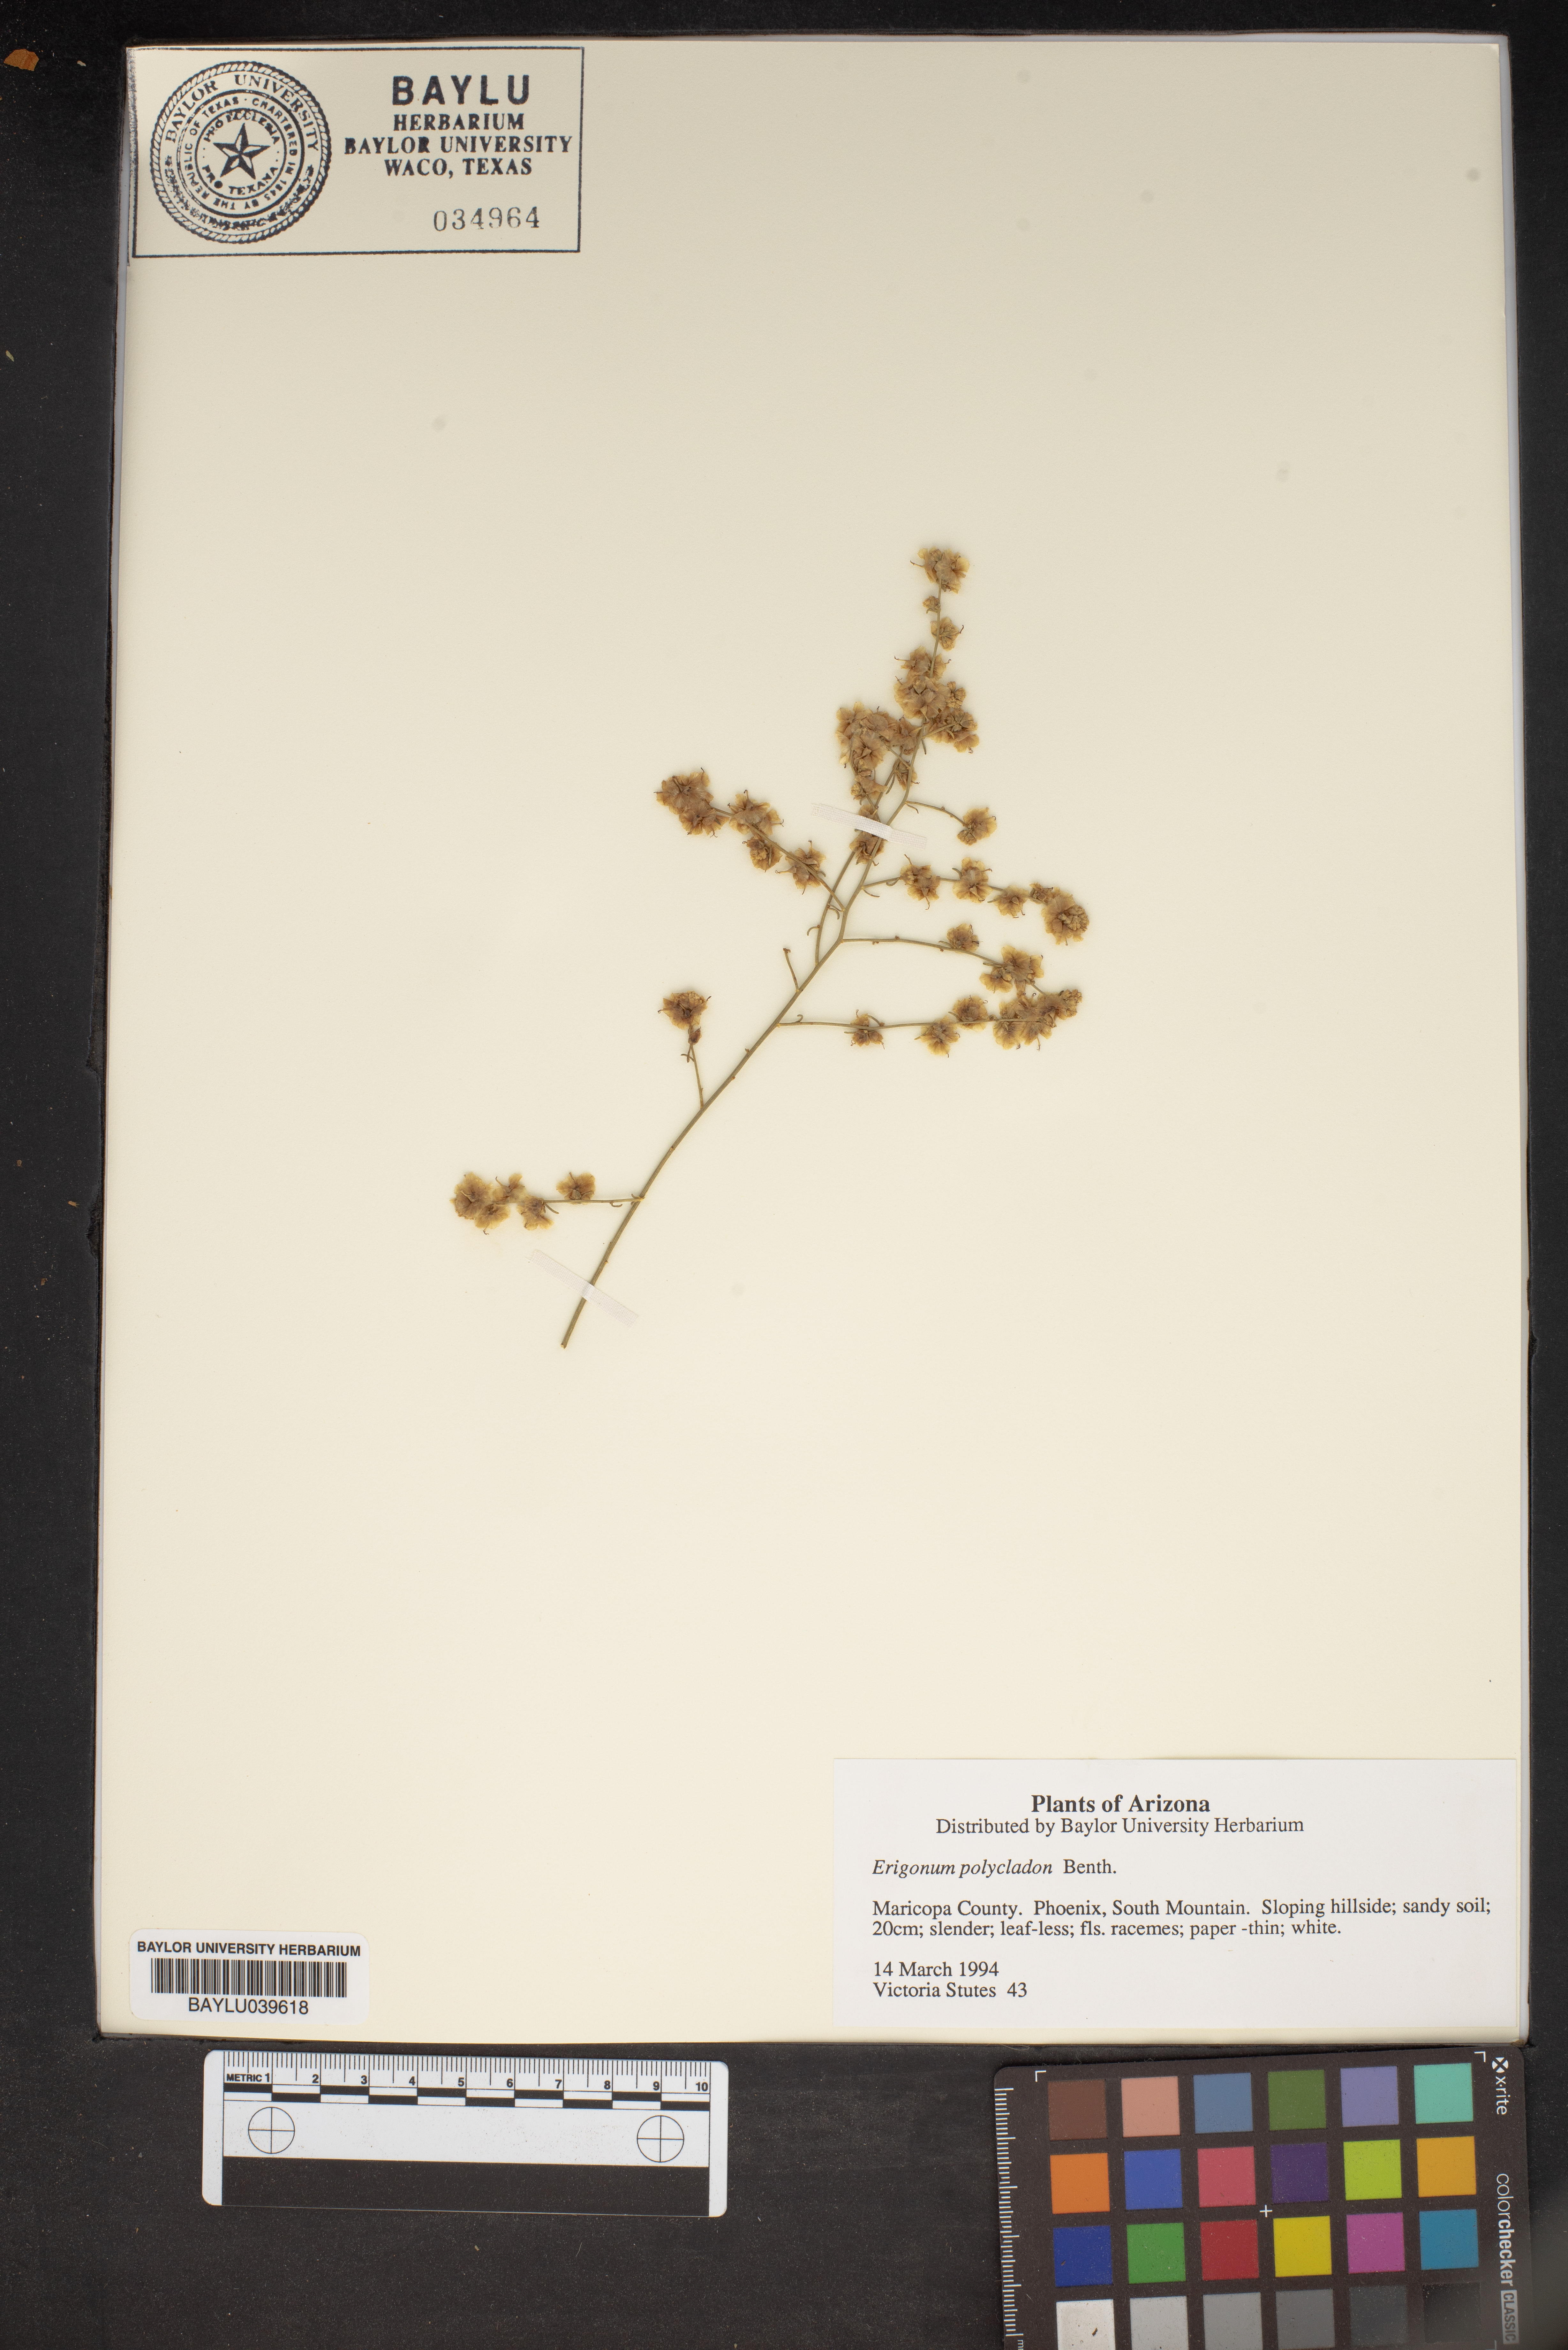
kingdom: Plantae
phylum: Tracheophyta
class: Magnoliopsida
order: Caryophyllales
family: Polygonaceae
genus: Eriogonum
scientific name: Eriogonum polycladon
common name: Sorrel wild buckwheat
